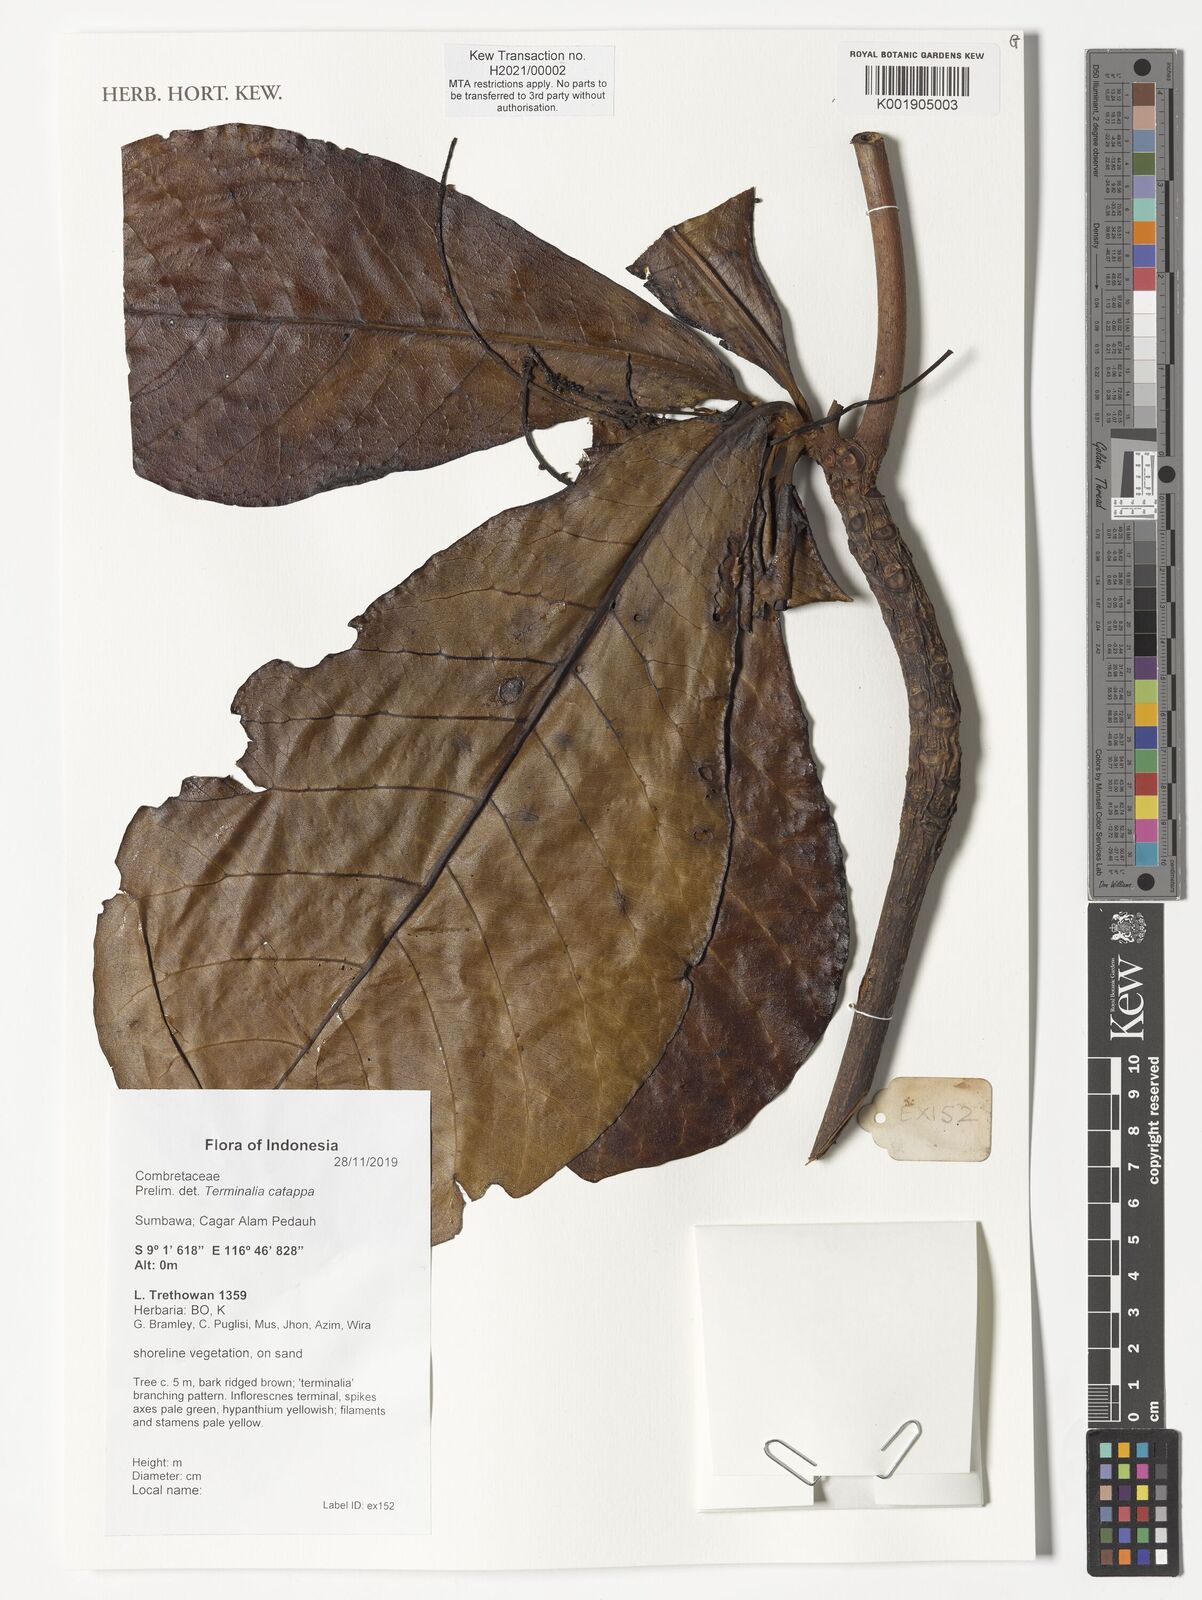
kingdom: Plantae
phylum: Tracheophyta
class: Magnoliopsida
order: Myrtales
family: Combretaceae
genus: Terminalia
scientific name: Terminalia catappa
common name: Tropical almond
